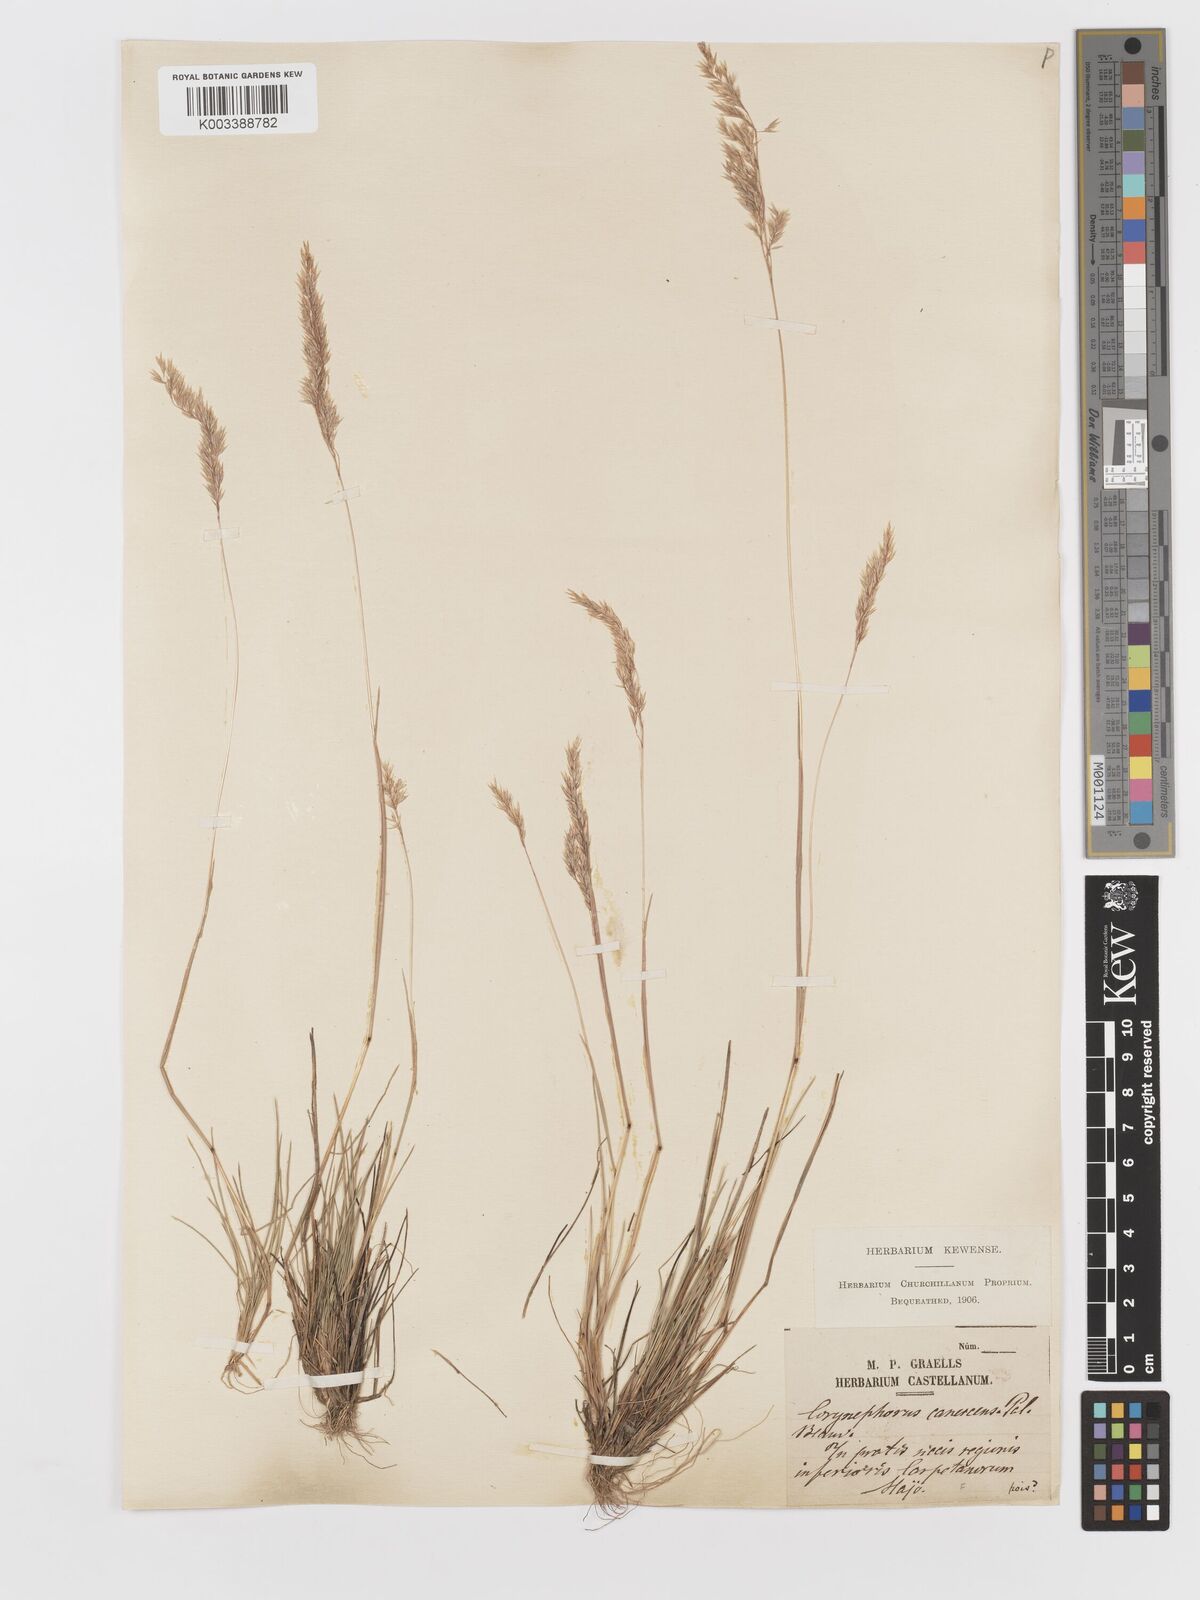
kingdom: Plantae
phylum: Tracheophyta
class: Liliopsida
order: Poales
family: Poaceae
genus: Corynephorus
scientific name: Corynephorus canescens
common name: Grey hair-grass
